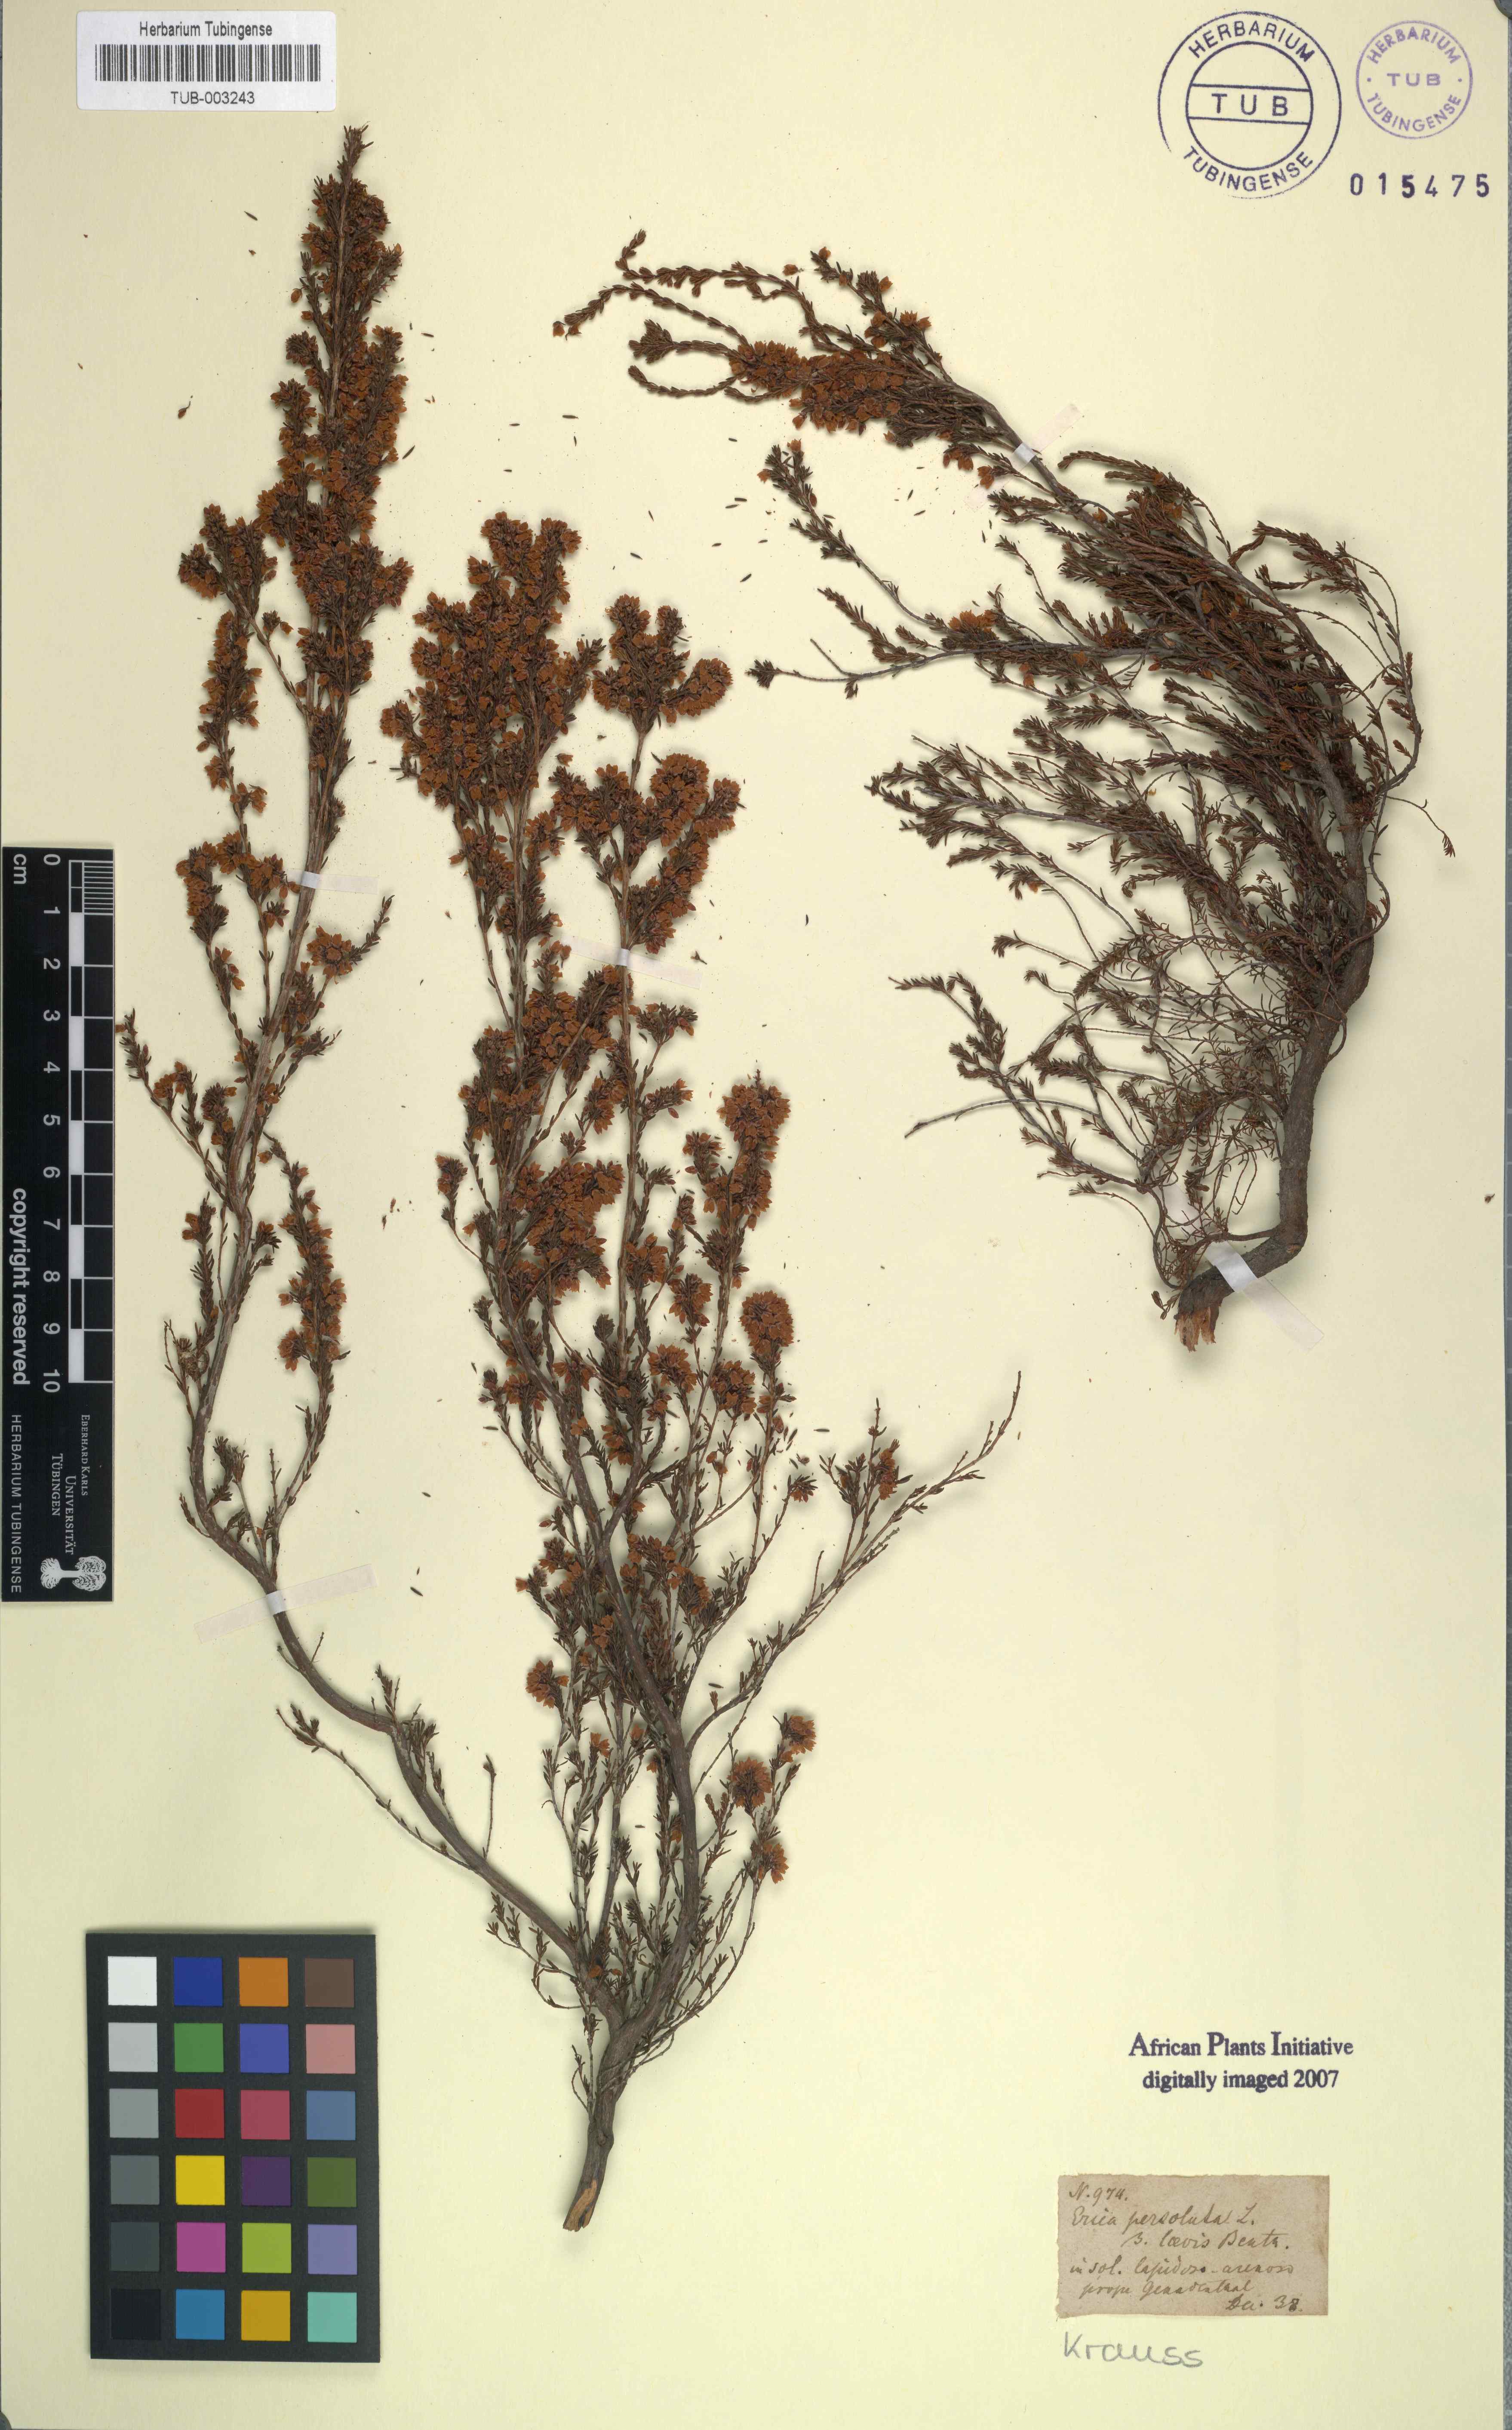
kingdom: Plantae
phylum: Tracheophyta
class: Magnoliopsida
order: Ericales
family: Ericaceae
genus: Erica
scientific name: Erica subdivaricata
